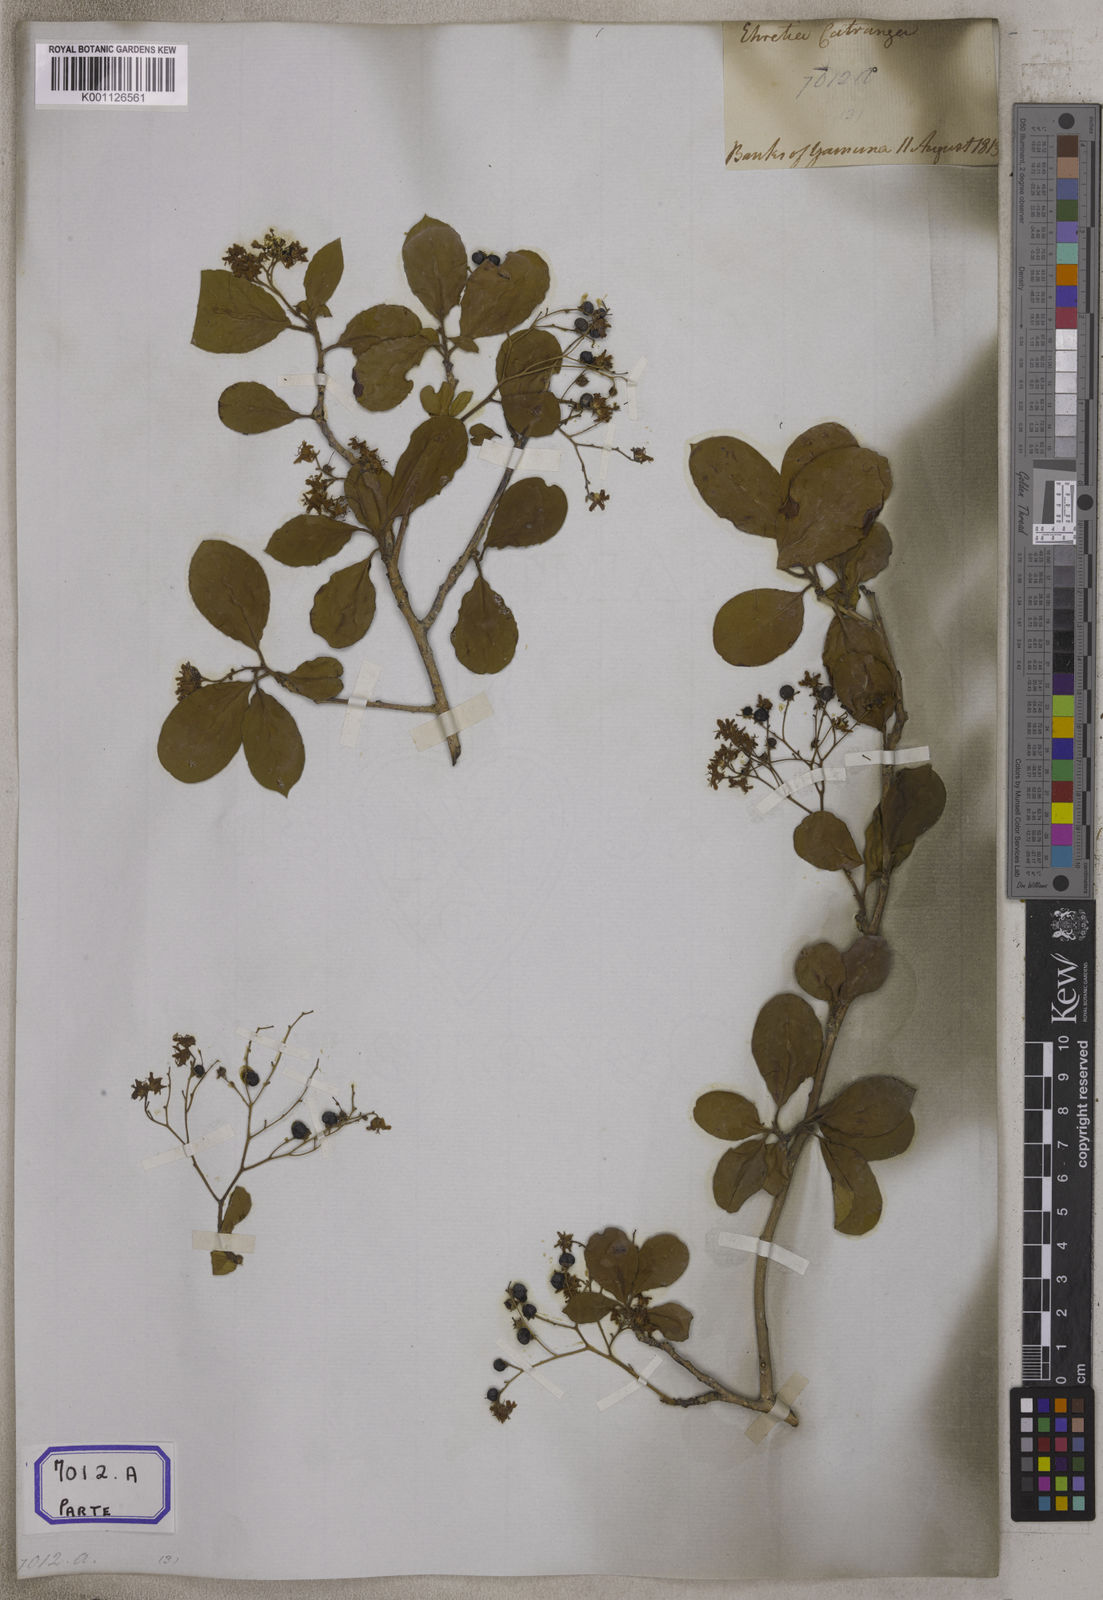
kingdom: Plantae
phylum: Tracheophyta
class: Magnoliopsida
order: Boraginales
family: Ehretiaceae
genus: Ehretia
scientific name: Ehretia aspera
